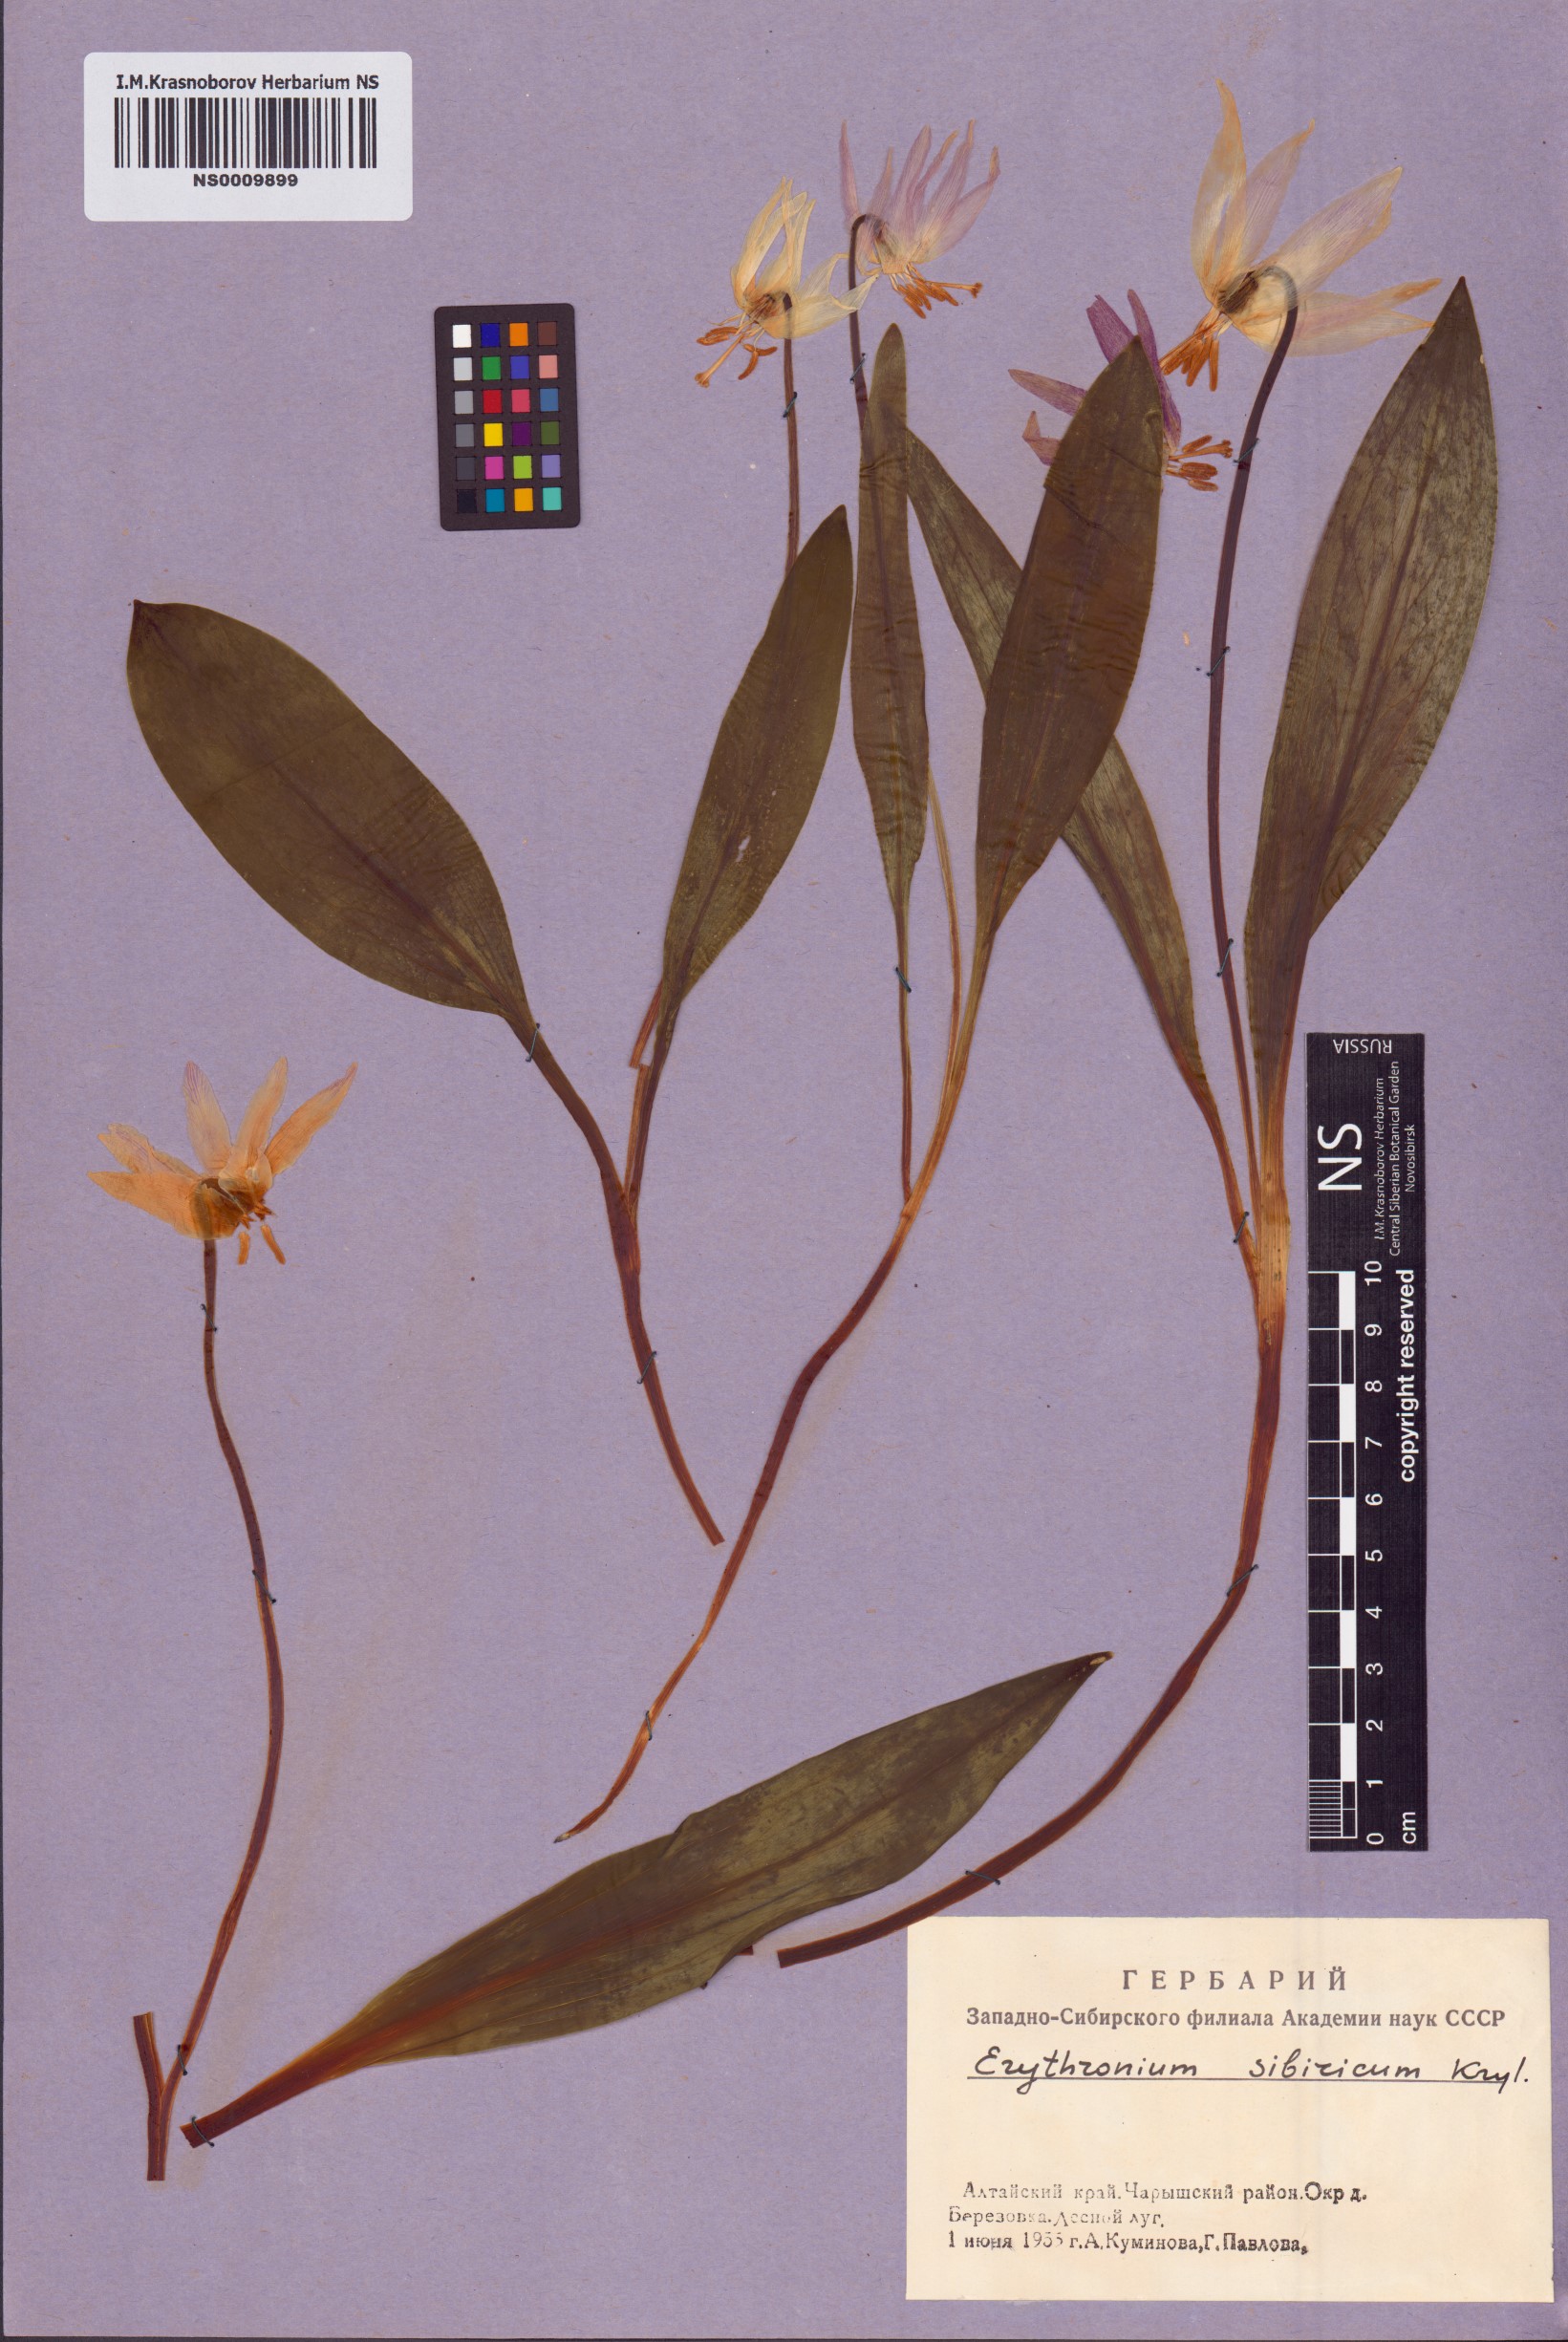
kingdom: Plantae
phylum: Tracheophyta
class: Liliopsida
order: Liliales
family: Liliaceae
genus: Erythronium
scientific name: Erythronium sibiricum
